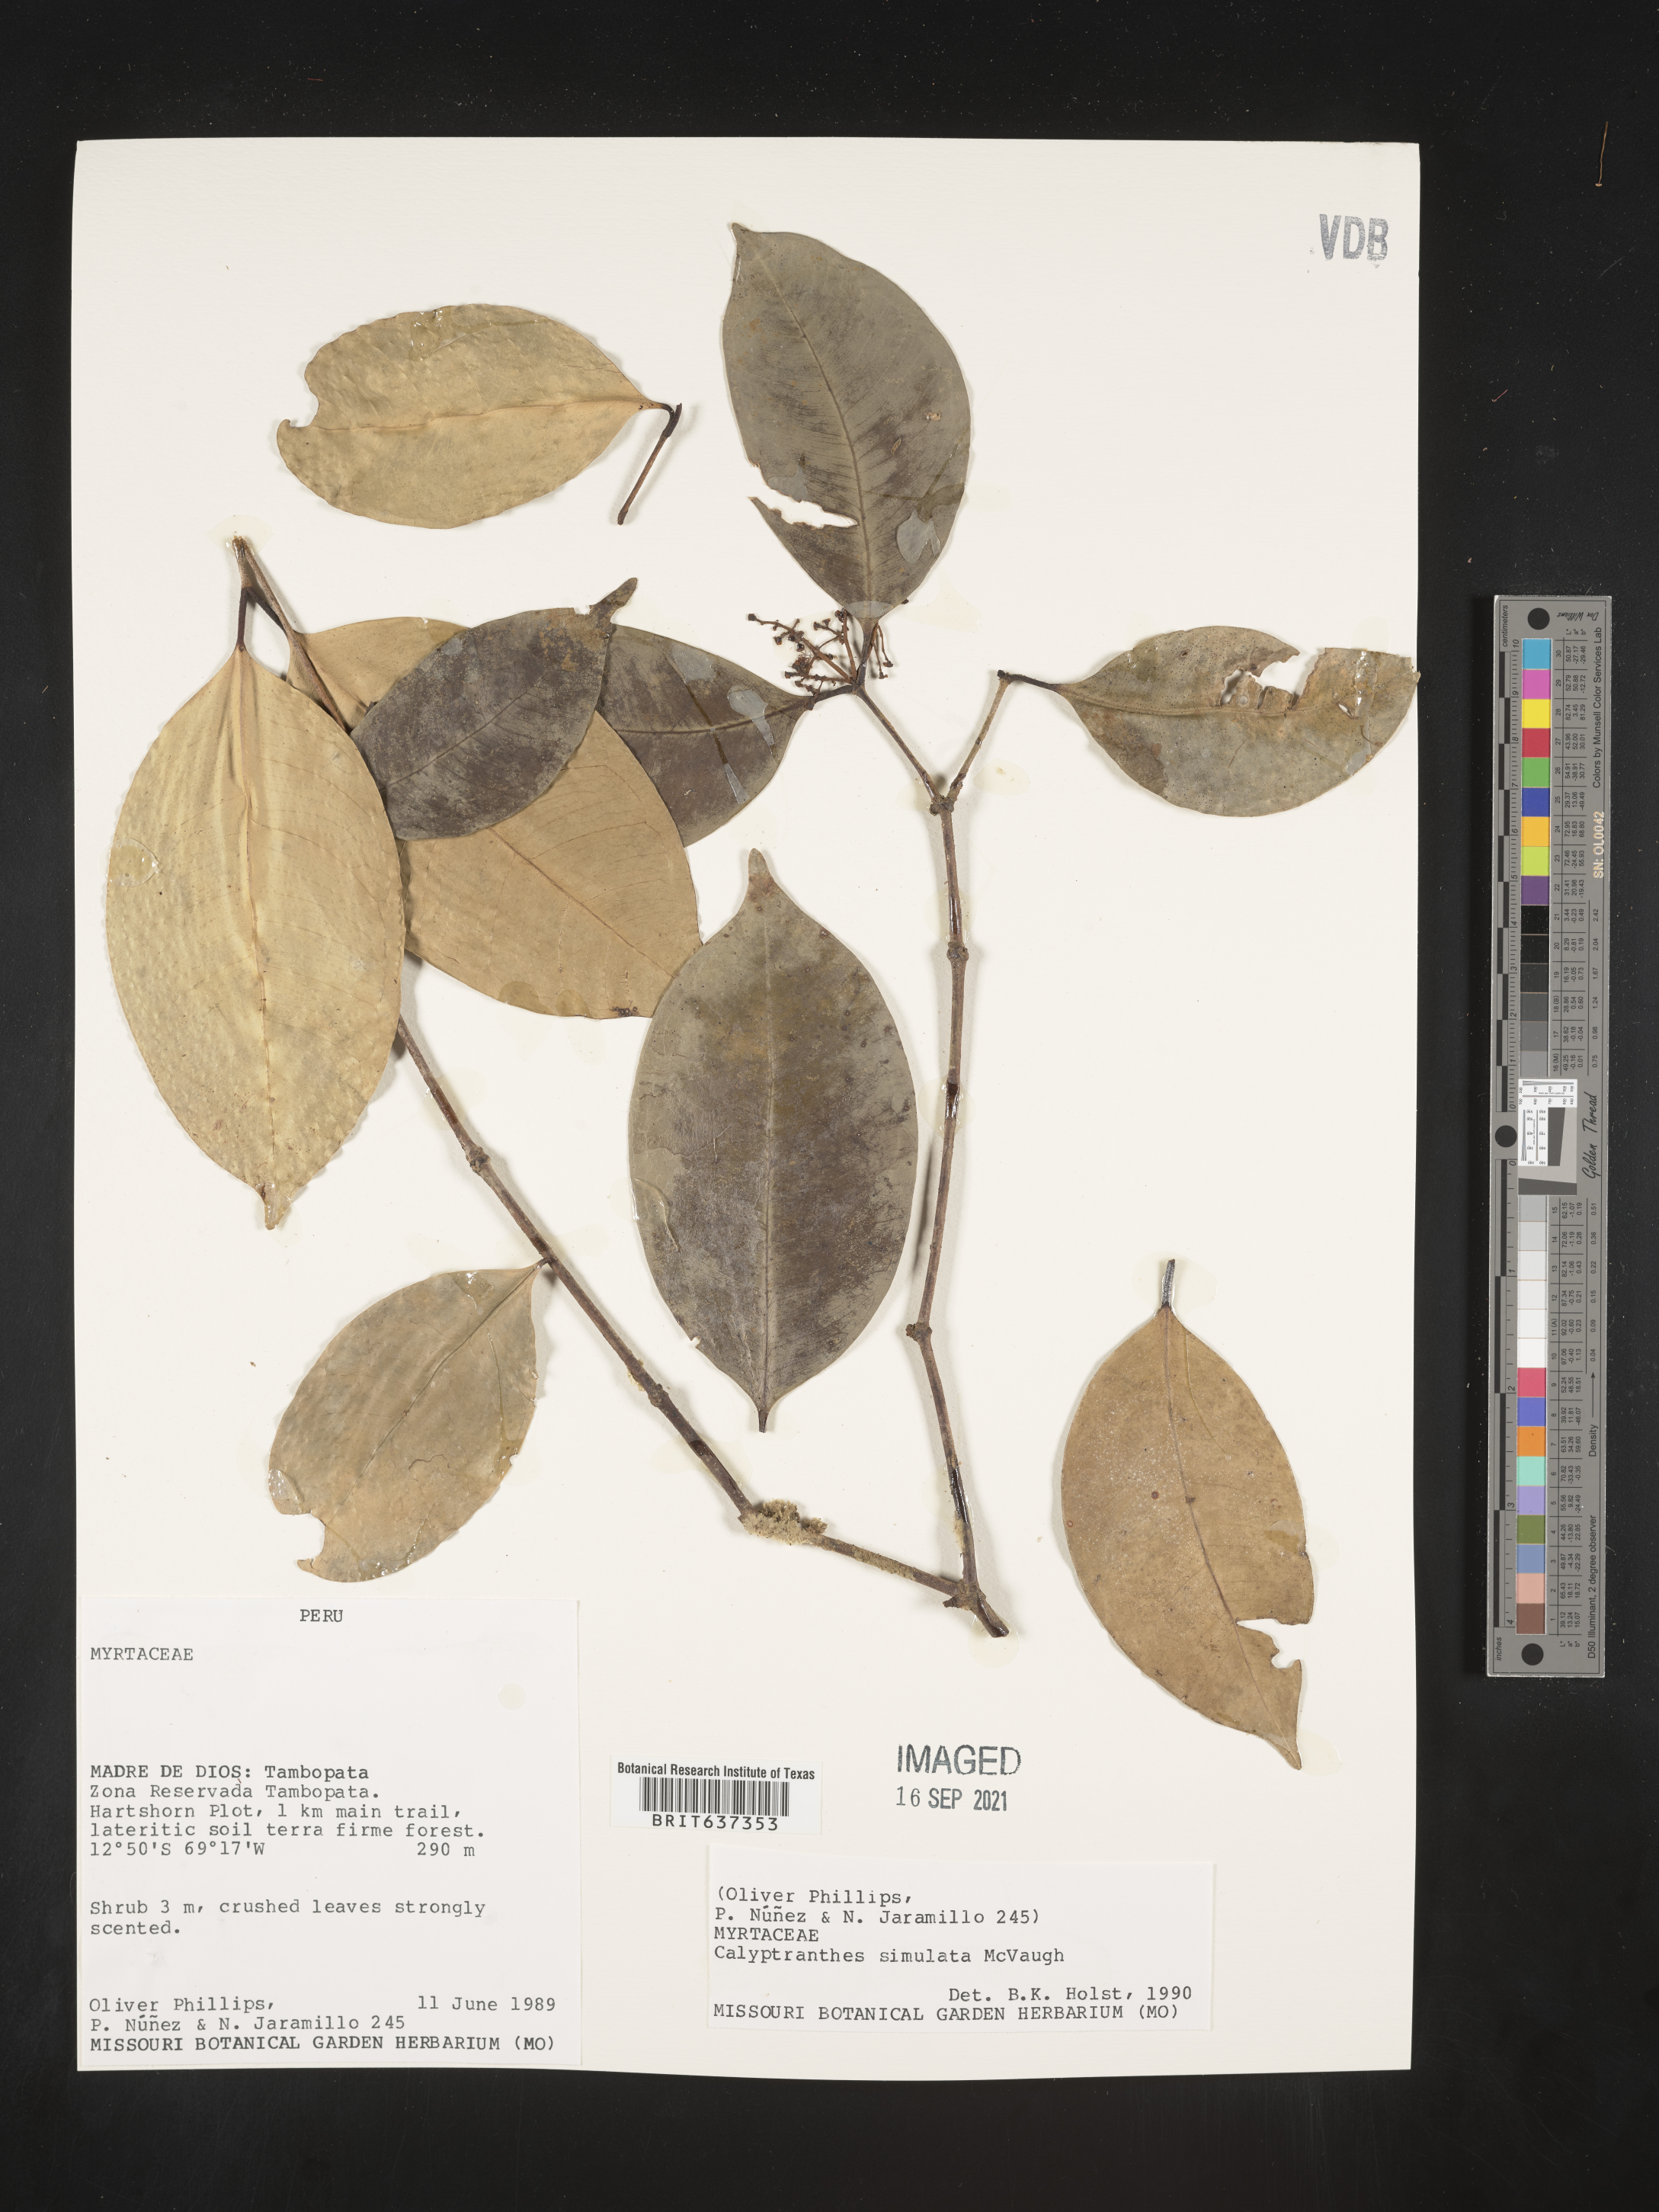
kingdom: Plantae
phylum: Tracheophyta
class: Magnoliopsida
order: Myrtales
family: Myrtaceae
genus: Calyptranthes
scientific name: Calyptranthes
